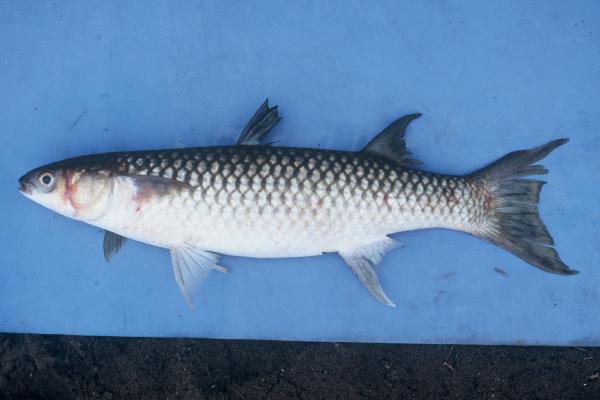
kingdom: Animalia
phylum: Chordata
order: Mugiliformes
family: Mugilidae
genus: Planiliza
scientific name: Planiliza alata
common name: Diamond mullet
